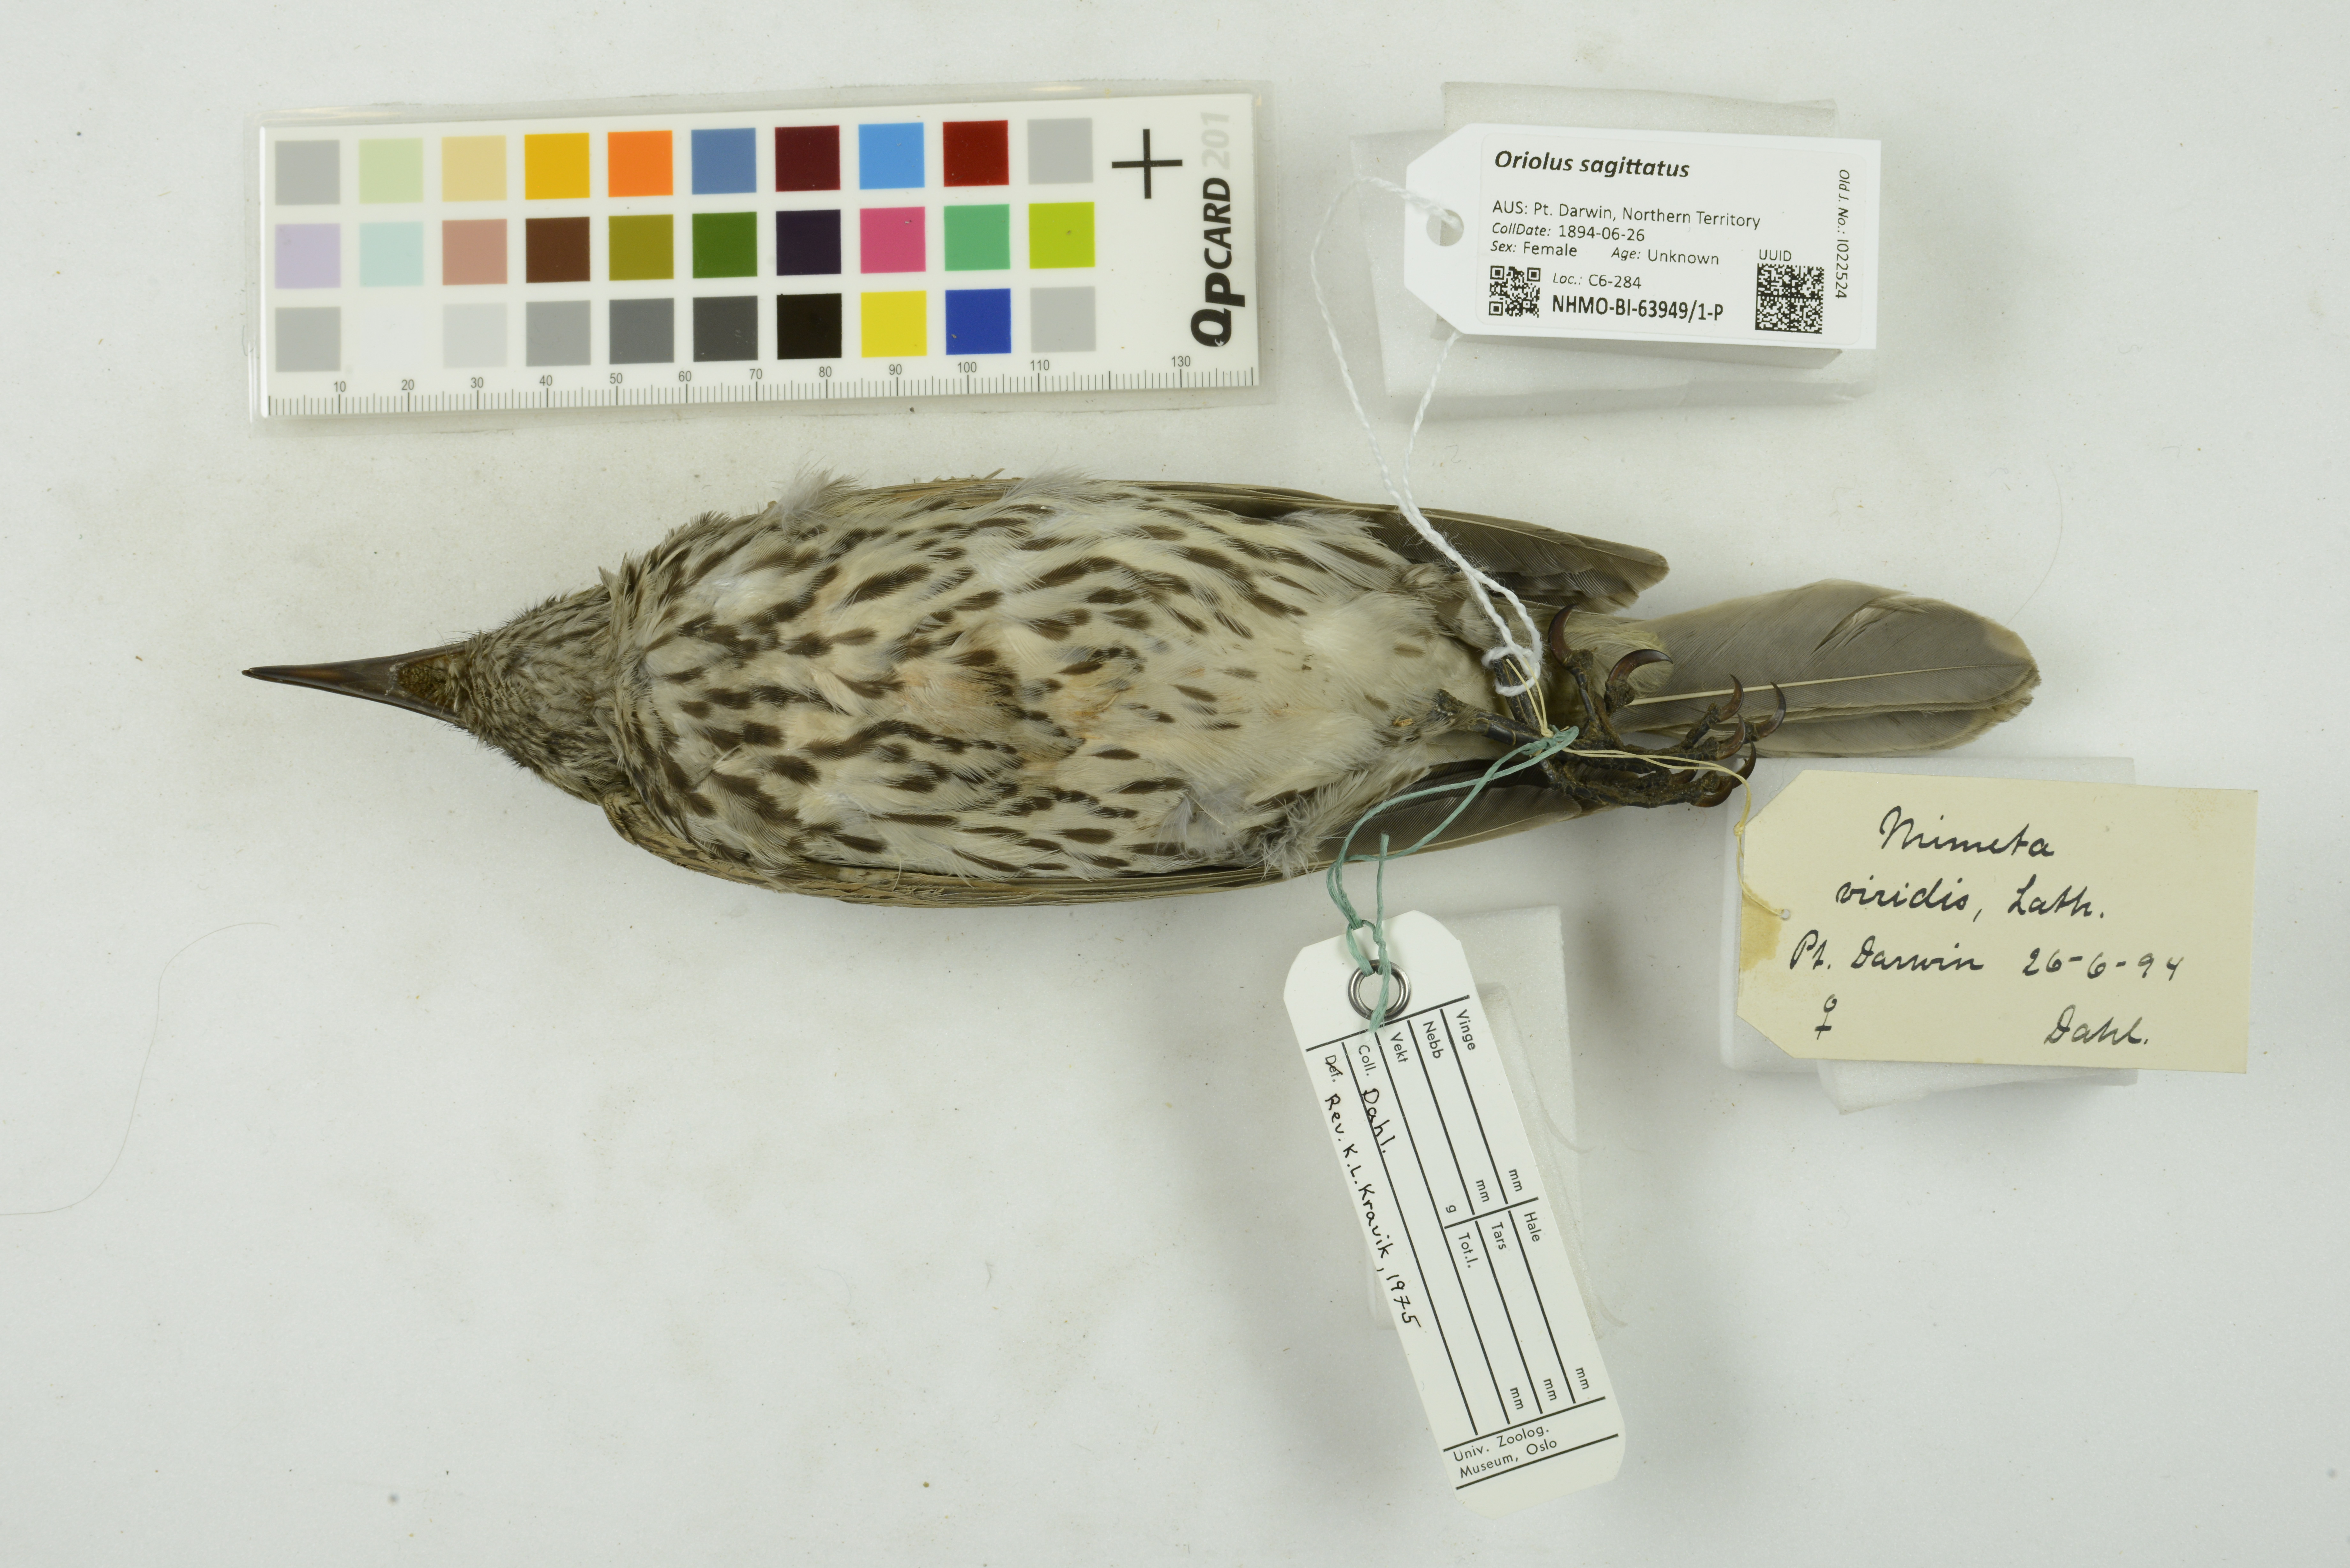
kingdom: Animalia
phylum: Chordata
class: Aves
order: Passeriformes
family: Oriolidae
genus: Oriolus
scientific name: Oriolus sagittatus
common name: Olive-backed oriole
